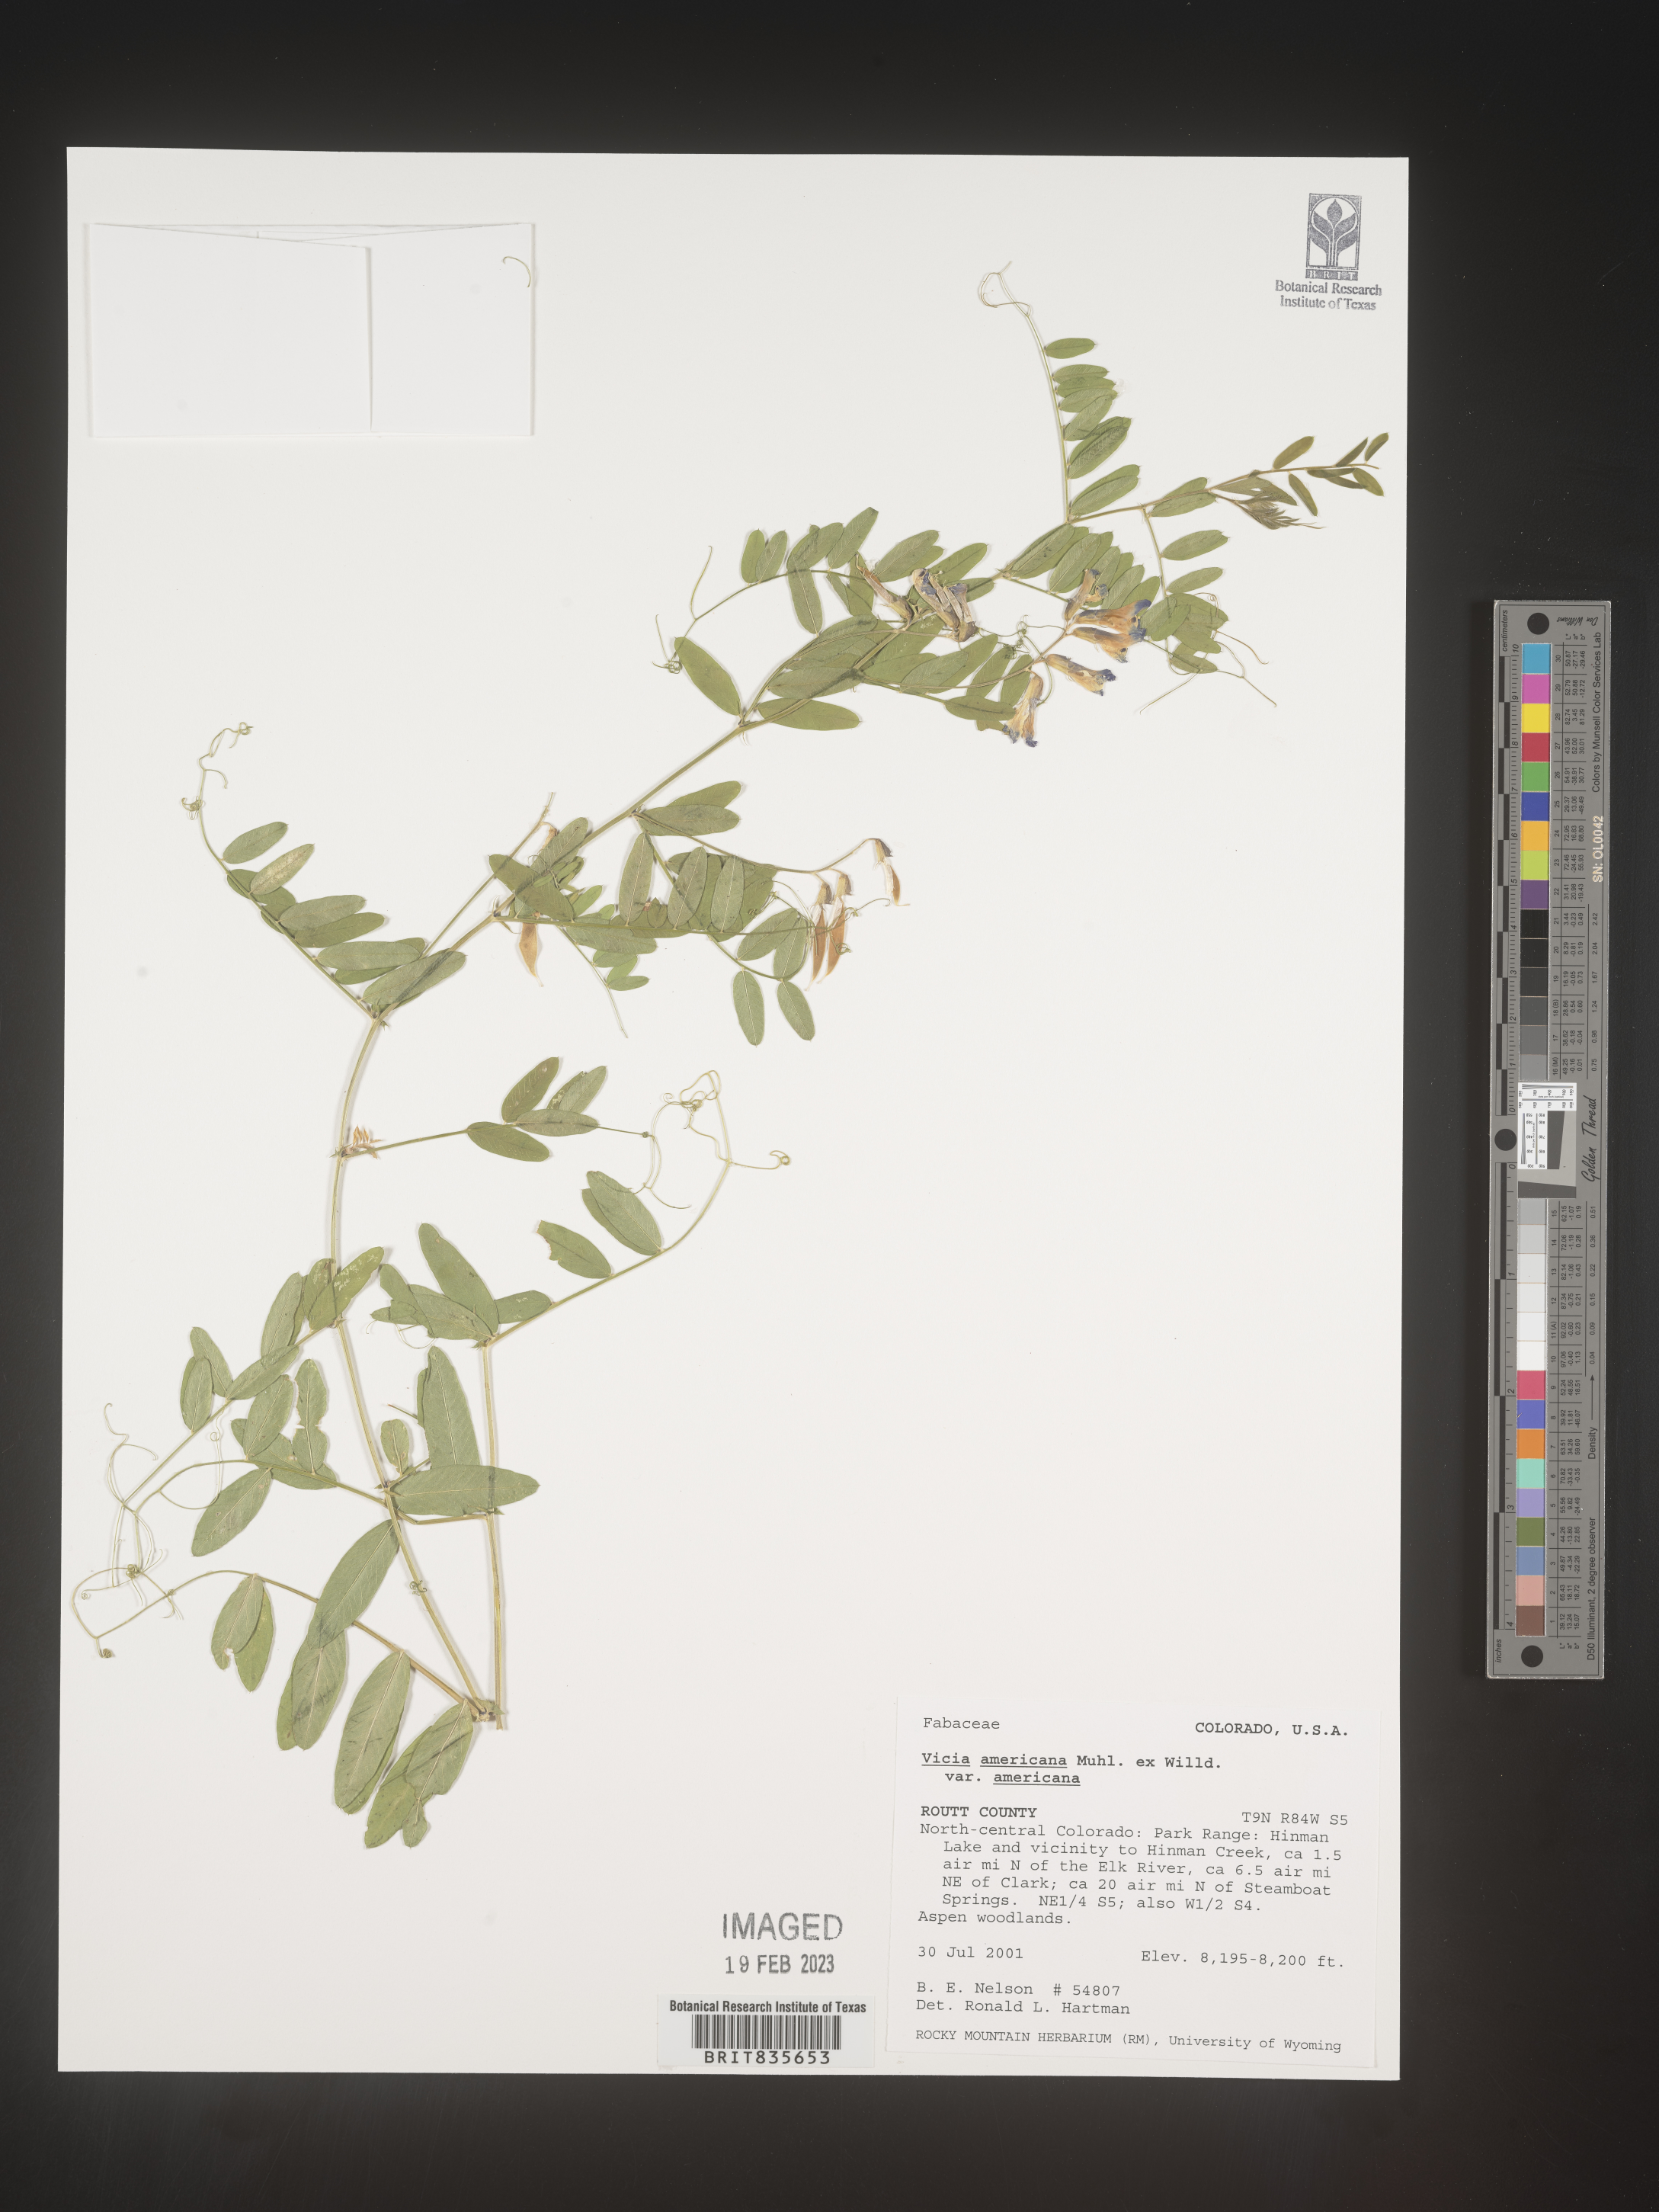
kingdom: Plantae
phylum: Tracheophyta
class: Magnoliopsida
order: Fabales
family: Fabaceae
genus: Vicia
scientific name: Vicia americana
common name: American vetch
